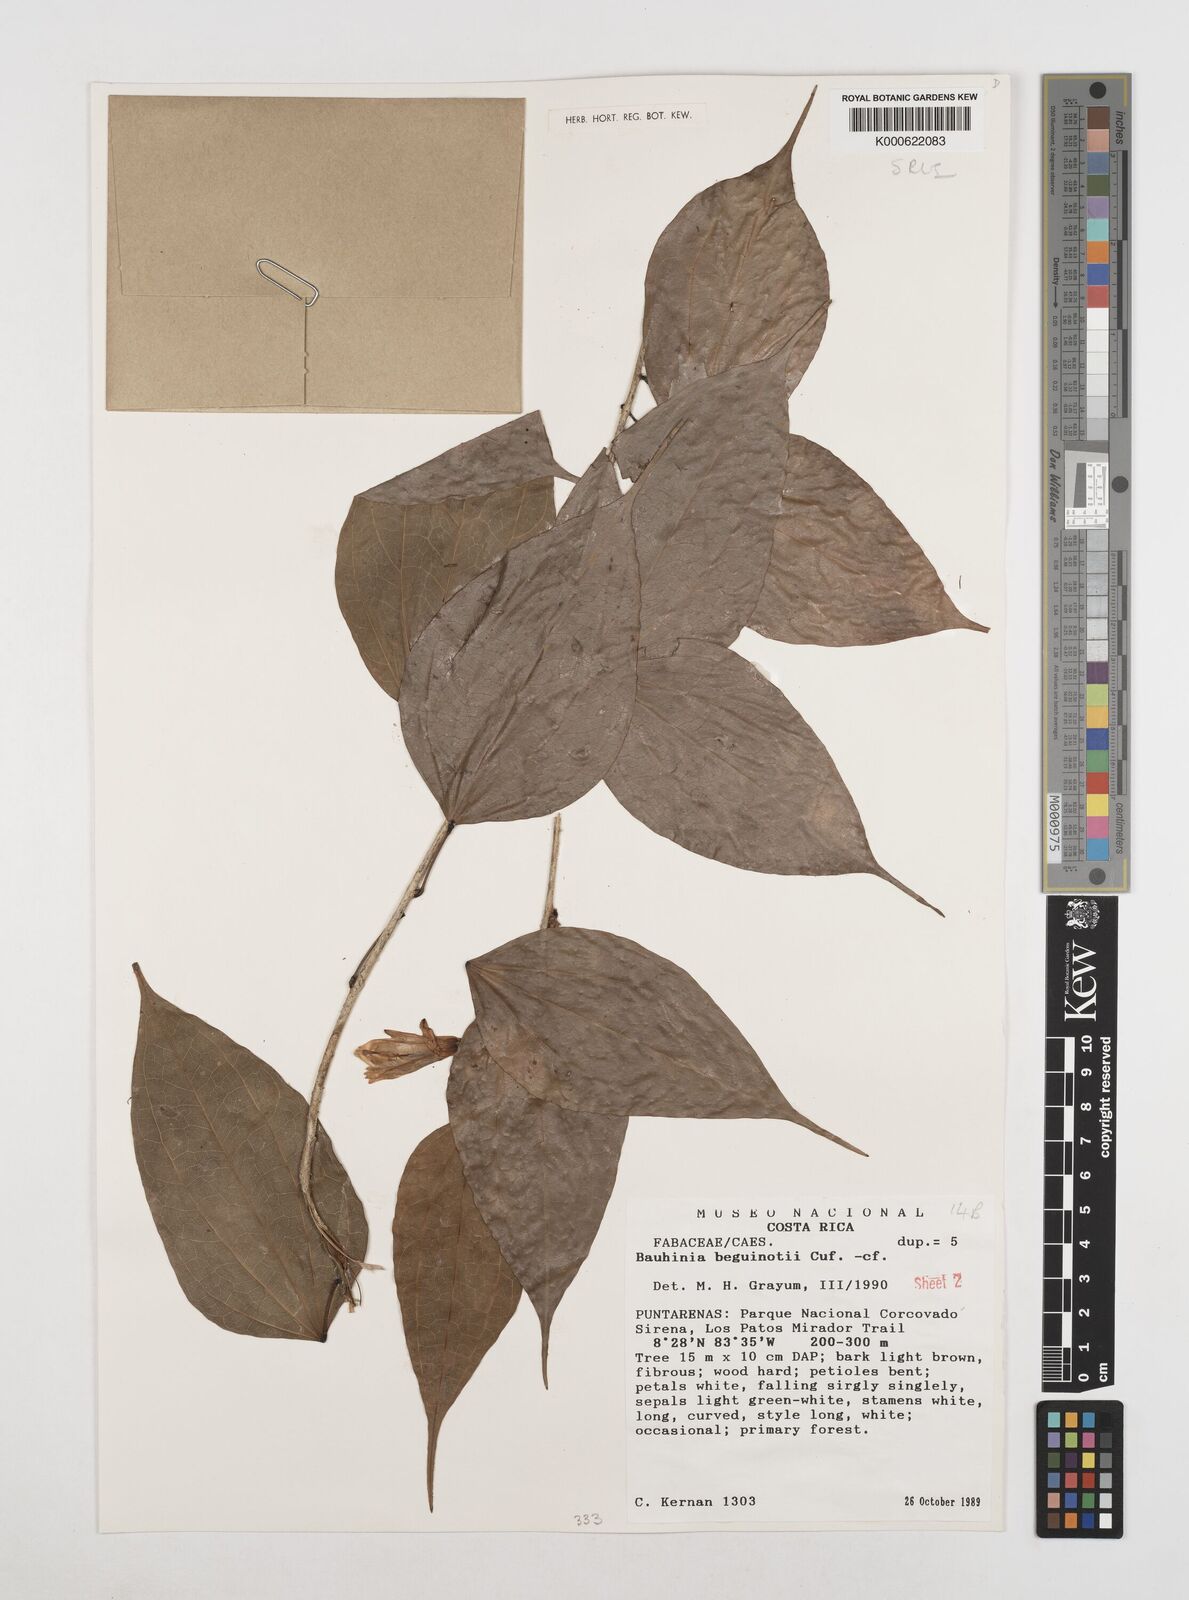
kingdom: Plantae
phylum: Tracheophyta
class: Magnoliopsida
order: Fabales
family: Fabaceae
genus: Bauhinia
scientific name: Bauhinia beguinotii
